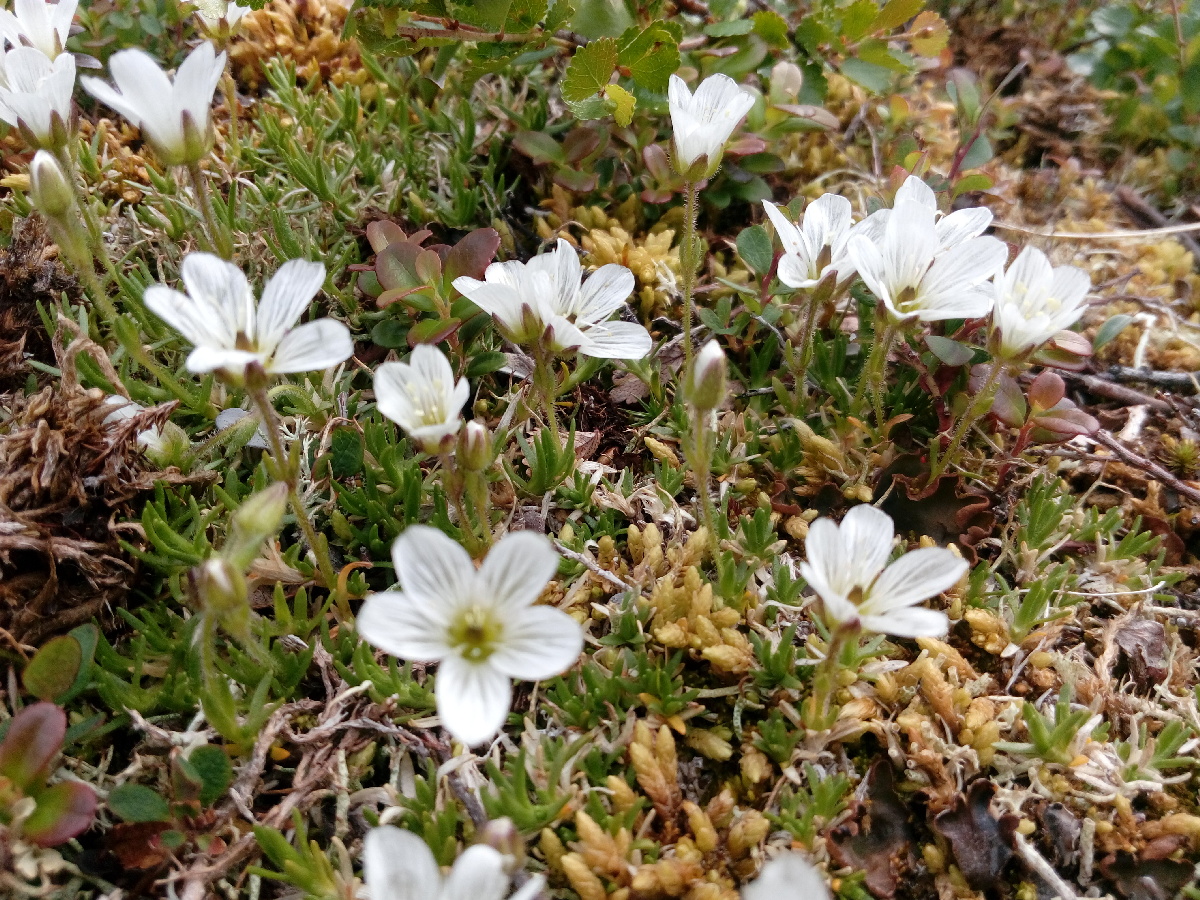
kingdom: Plantae
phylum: Tracheophyta
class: Magnoliopsida
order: Caryophyllales
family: Caryophyllaceae
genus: Cherleria
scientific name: Cherleria arctica
